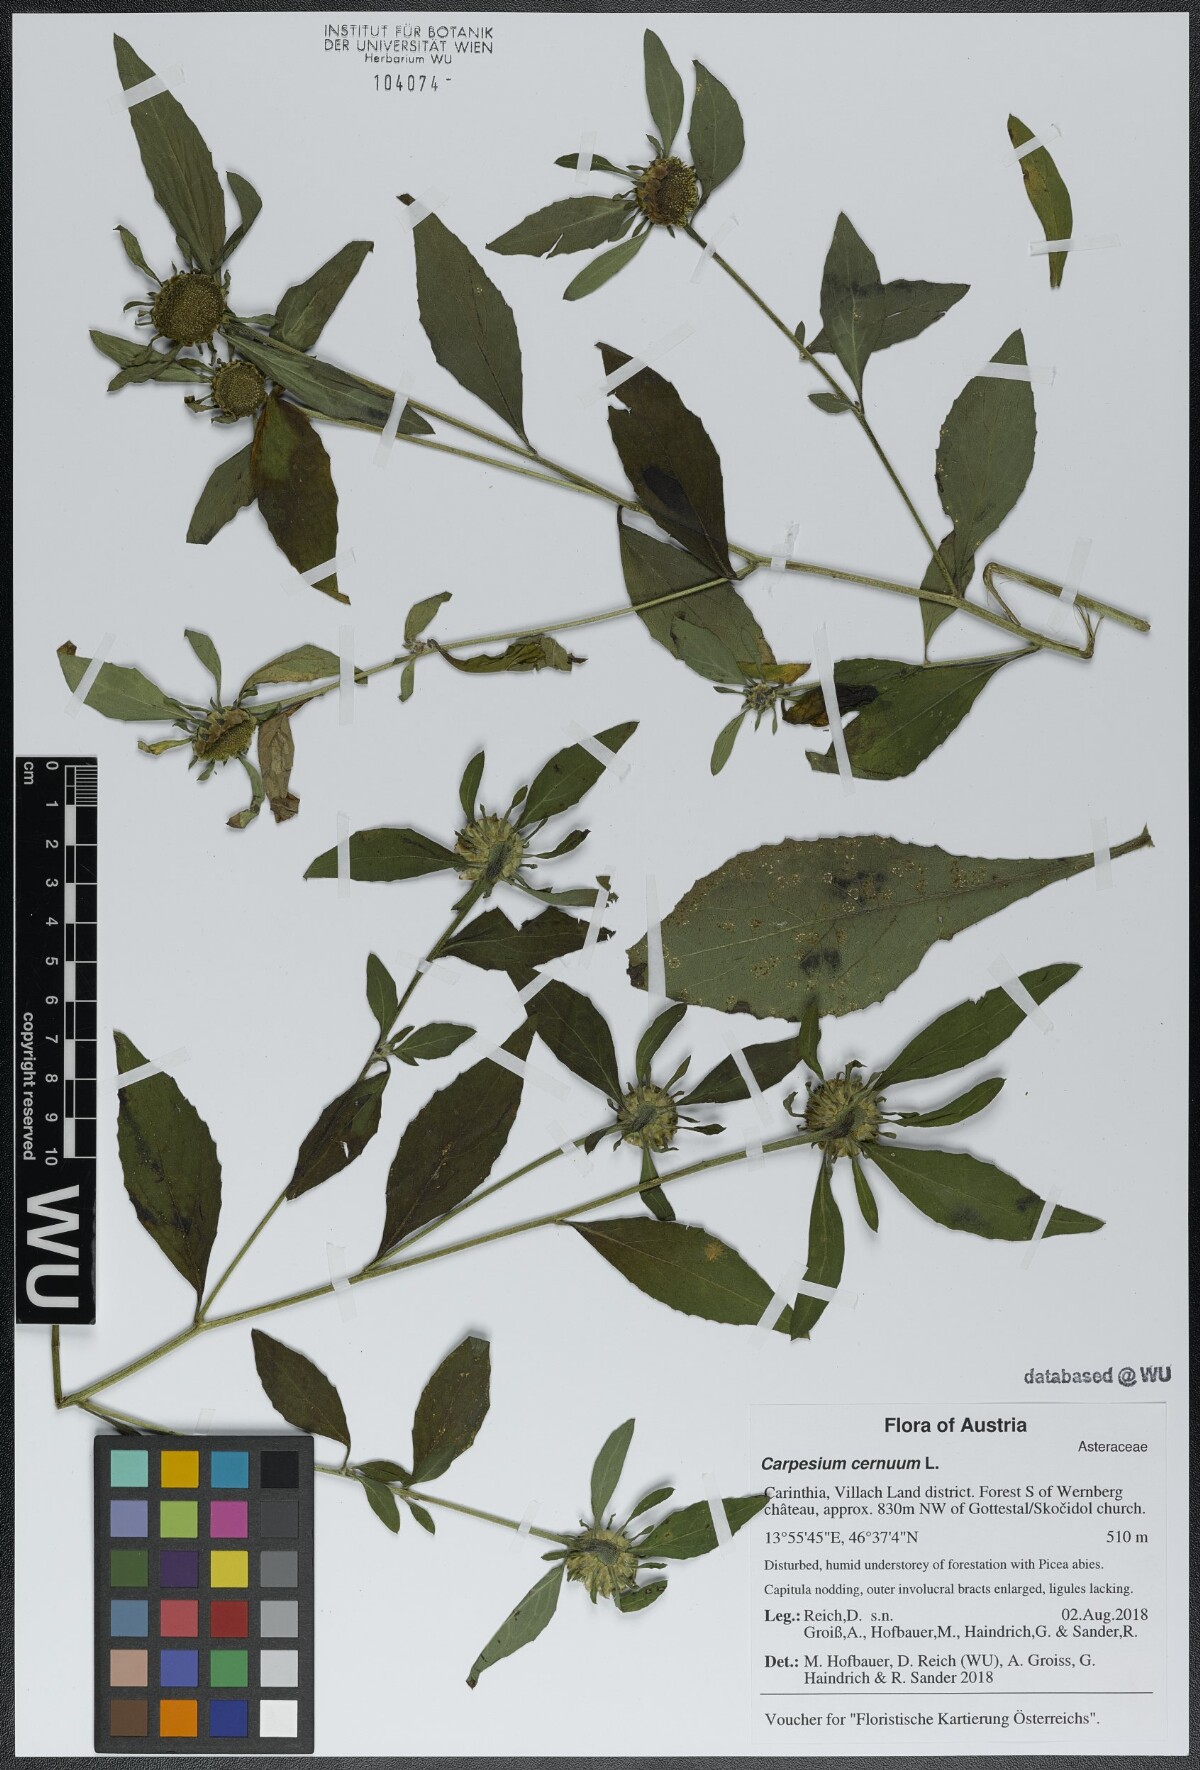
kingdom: Plantae
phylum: Tracheophyta
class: Magnoliopsida
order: Asterales
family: Asteraceae
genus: Carpesium
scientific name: Carpesium cernuum
